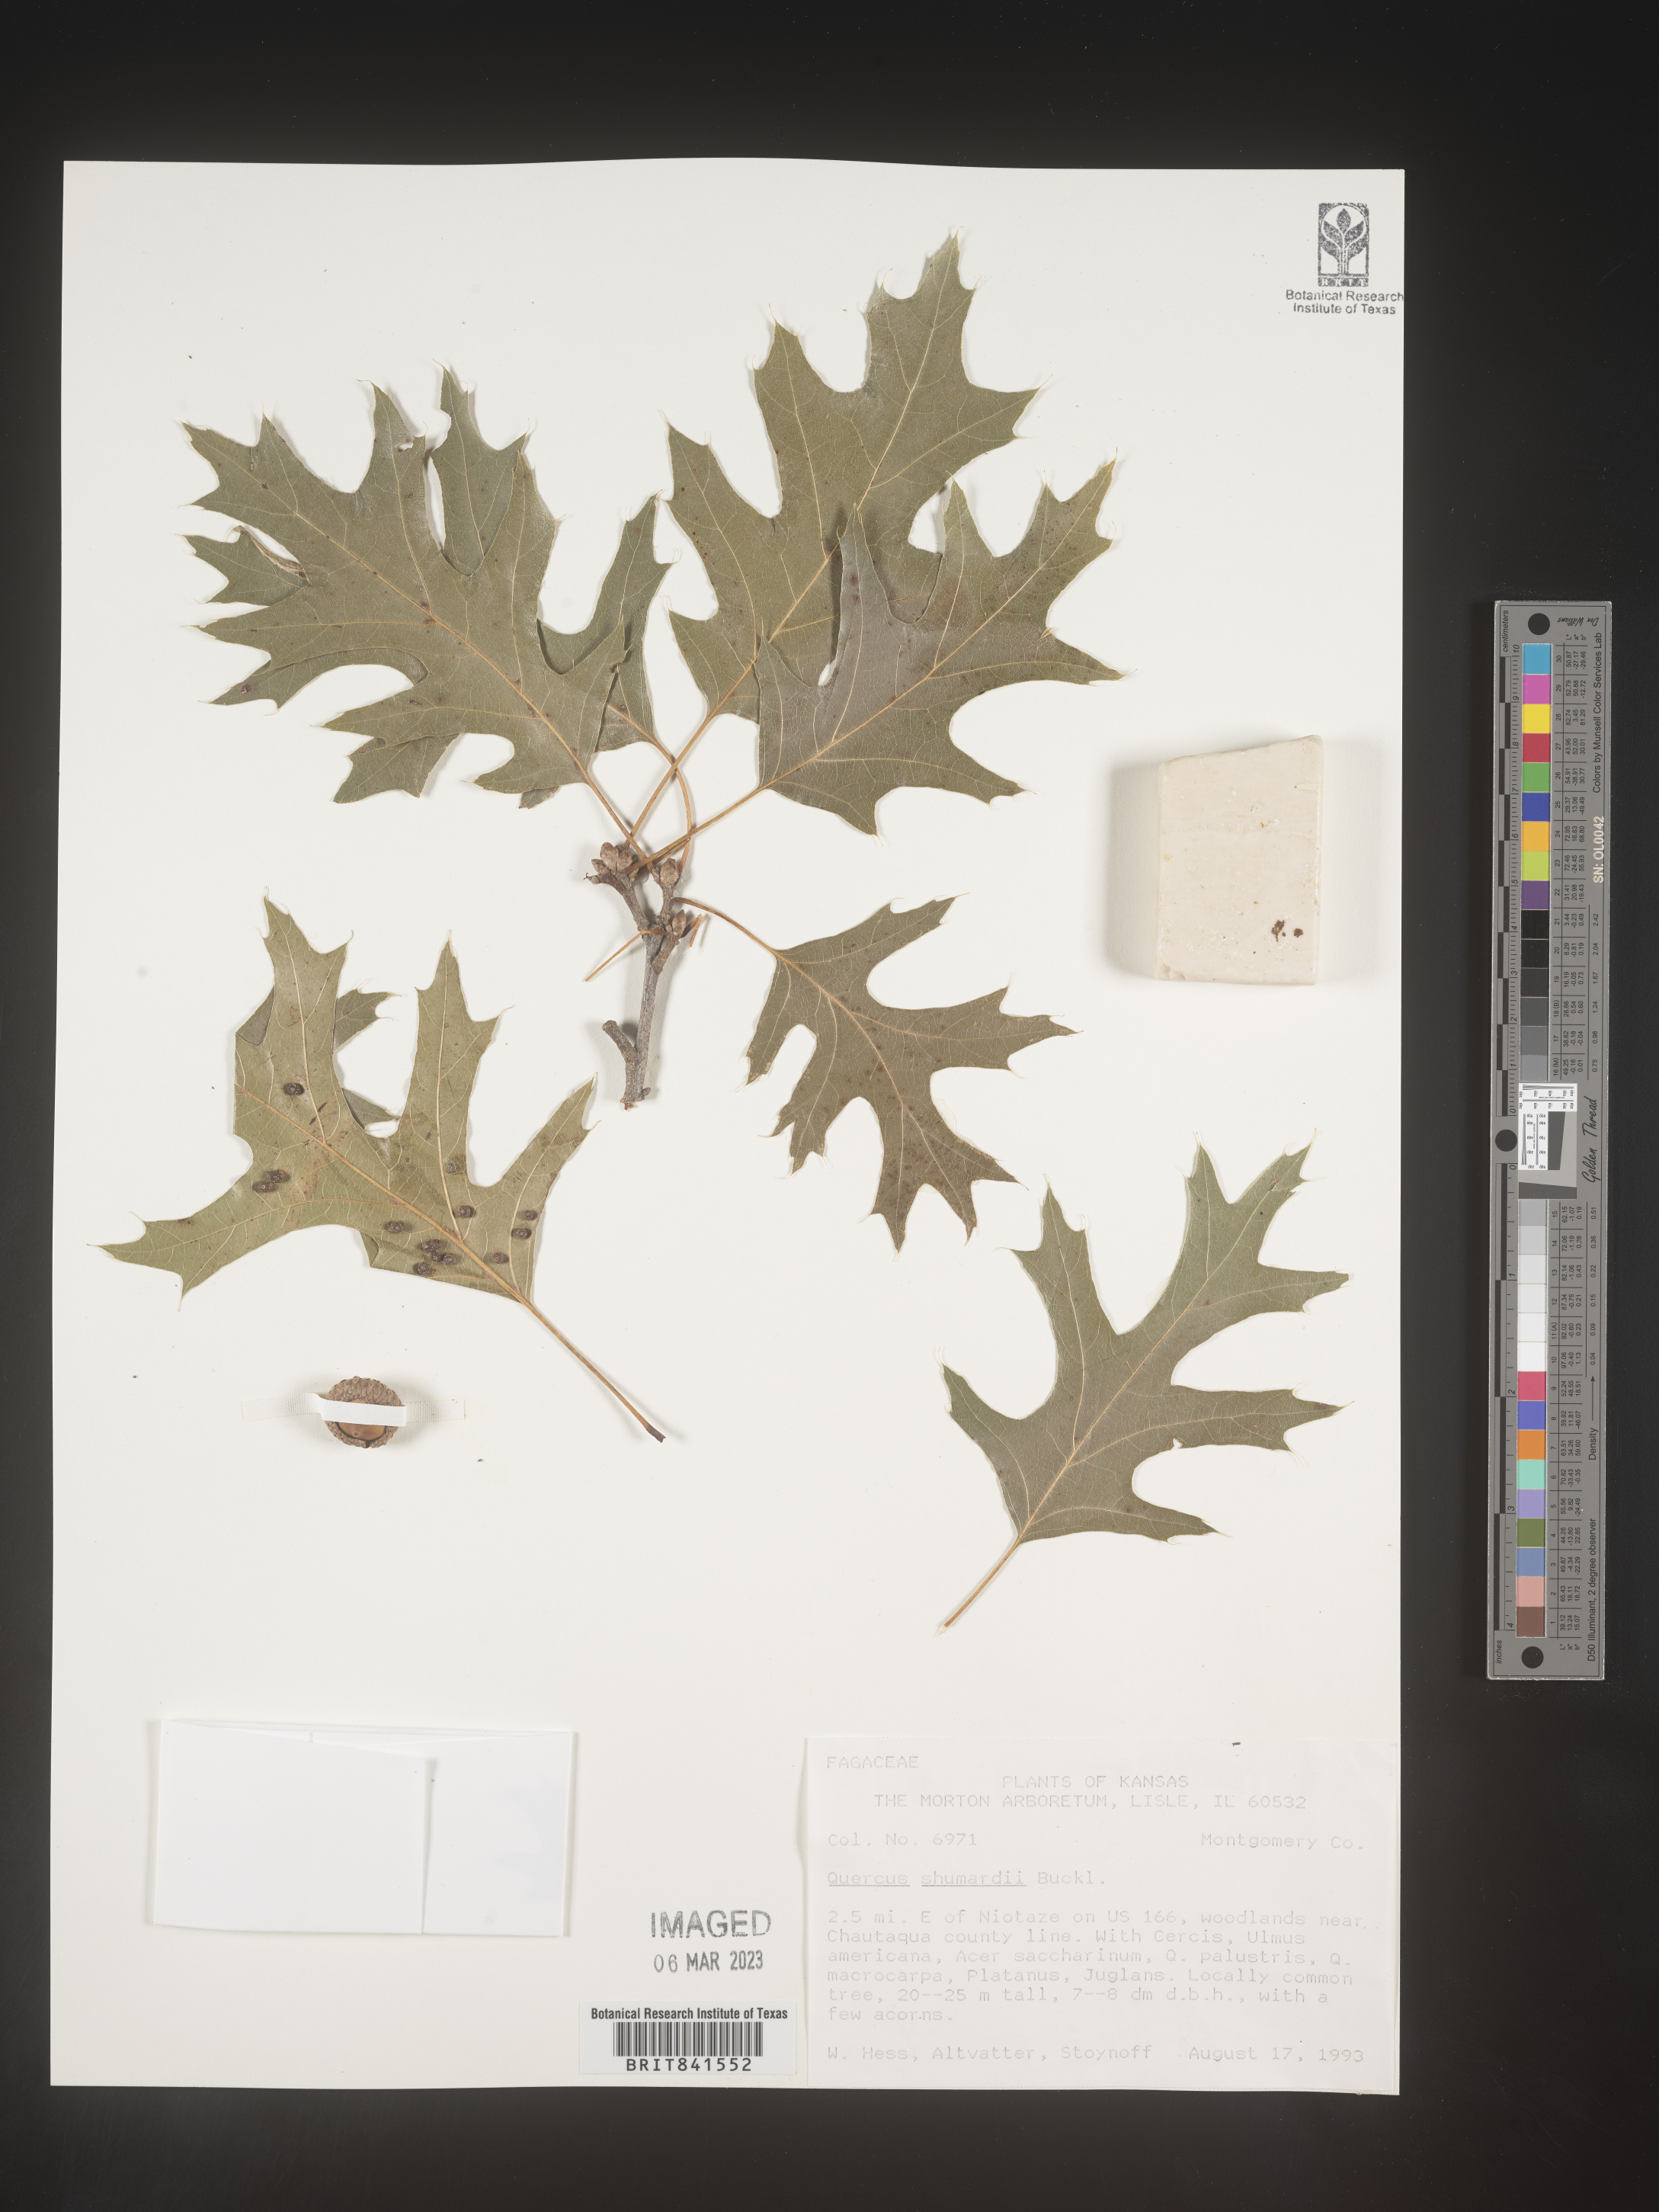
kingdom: Plantae
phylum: Tracheophyta
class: Magnoliopsida
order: Fagales
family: Fagaceae
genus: Quercus
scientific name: Quercus shumardii
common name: Shumard oak
